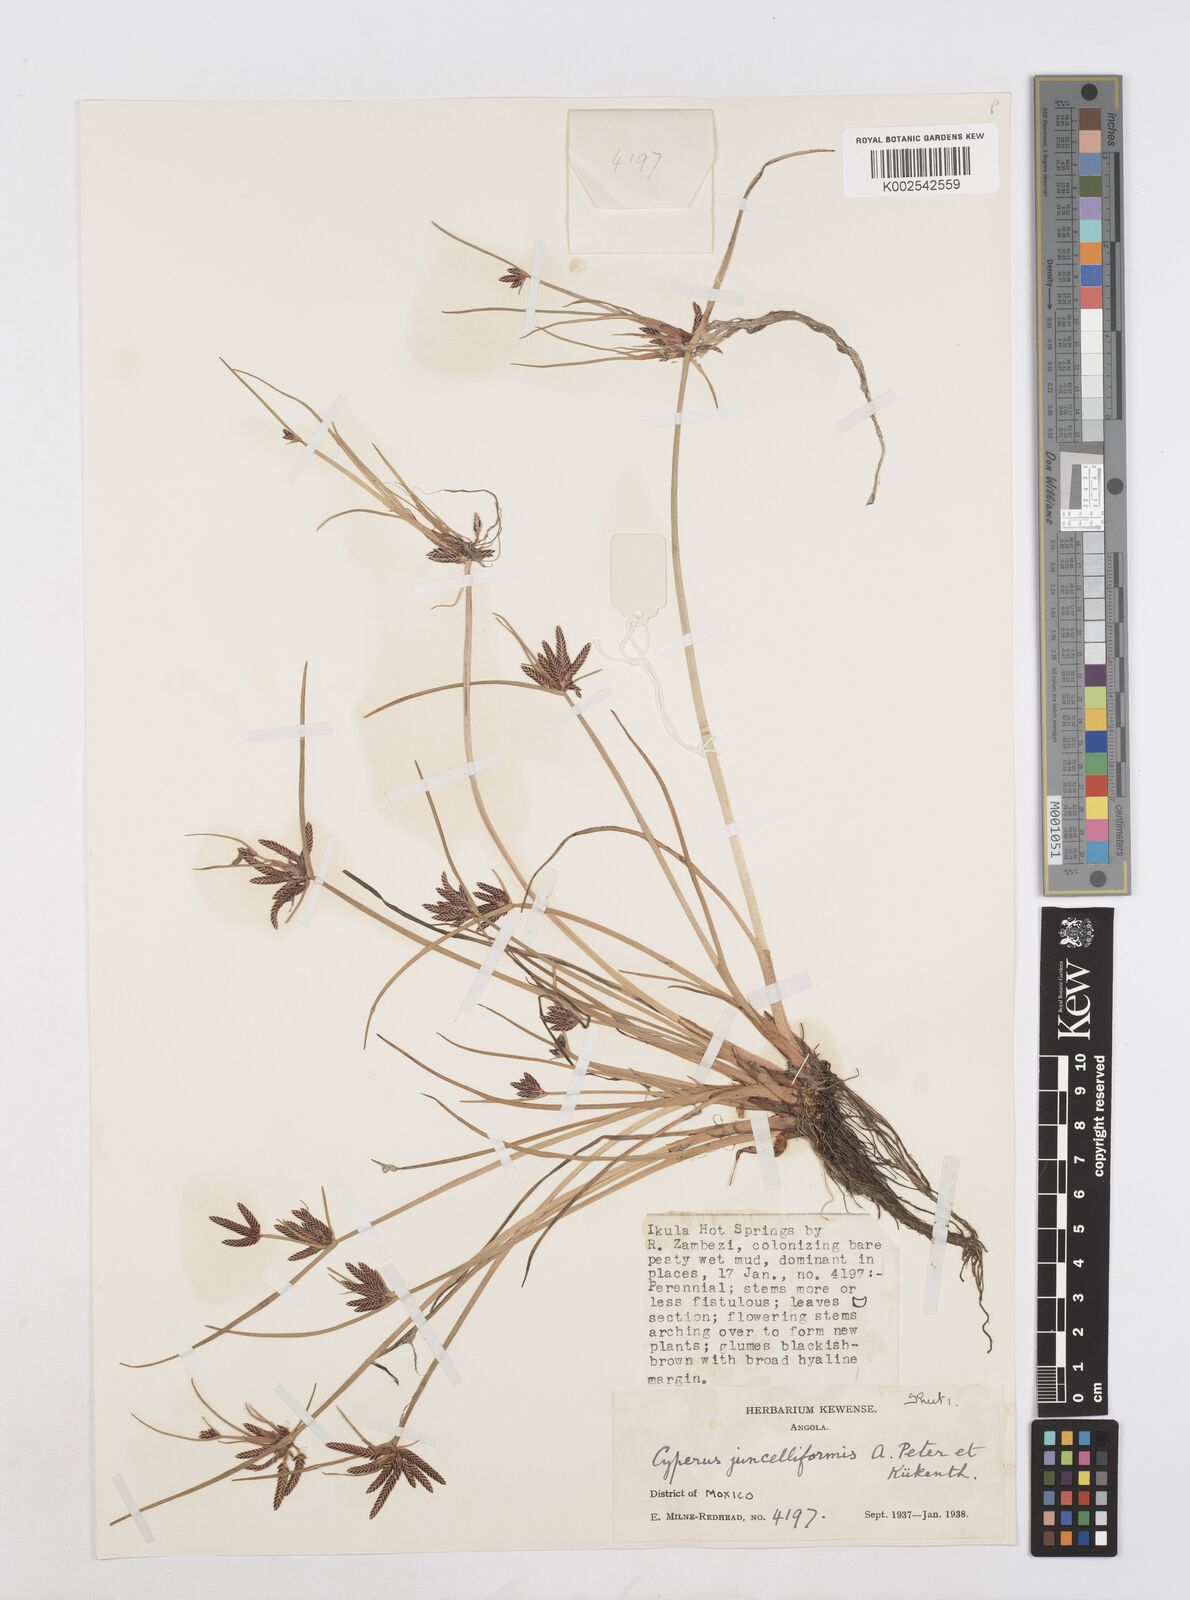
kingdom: Plantae
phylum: Tracheophyta
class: Liliopsida
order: Poales
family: Cyperaceae
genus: Cyperus
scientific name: Cyperus juncelliformis
